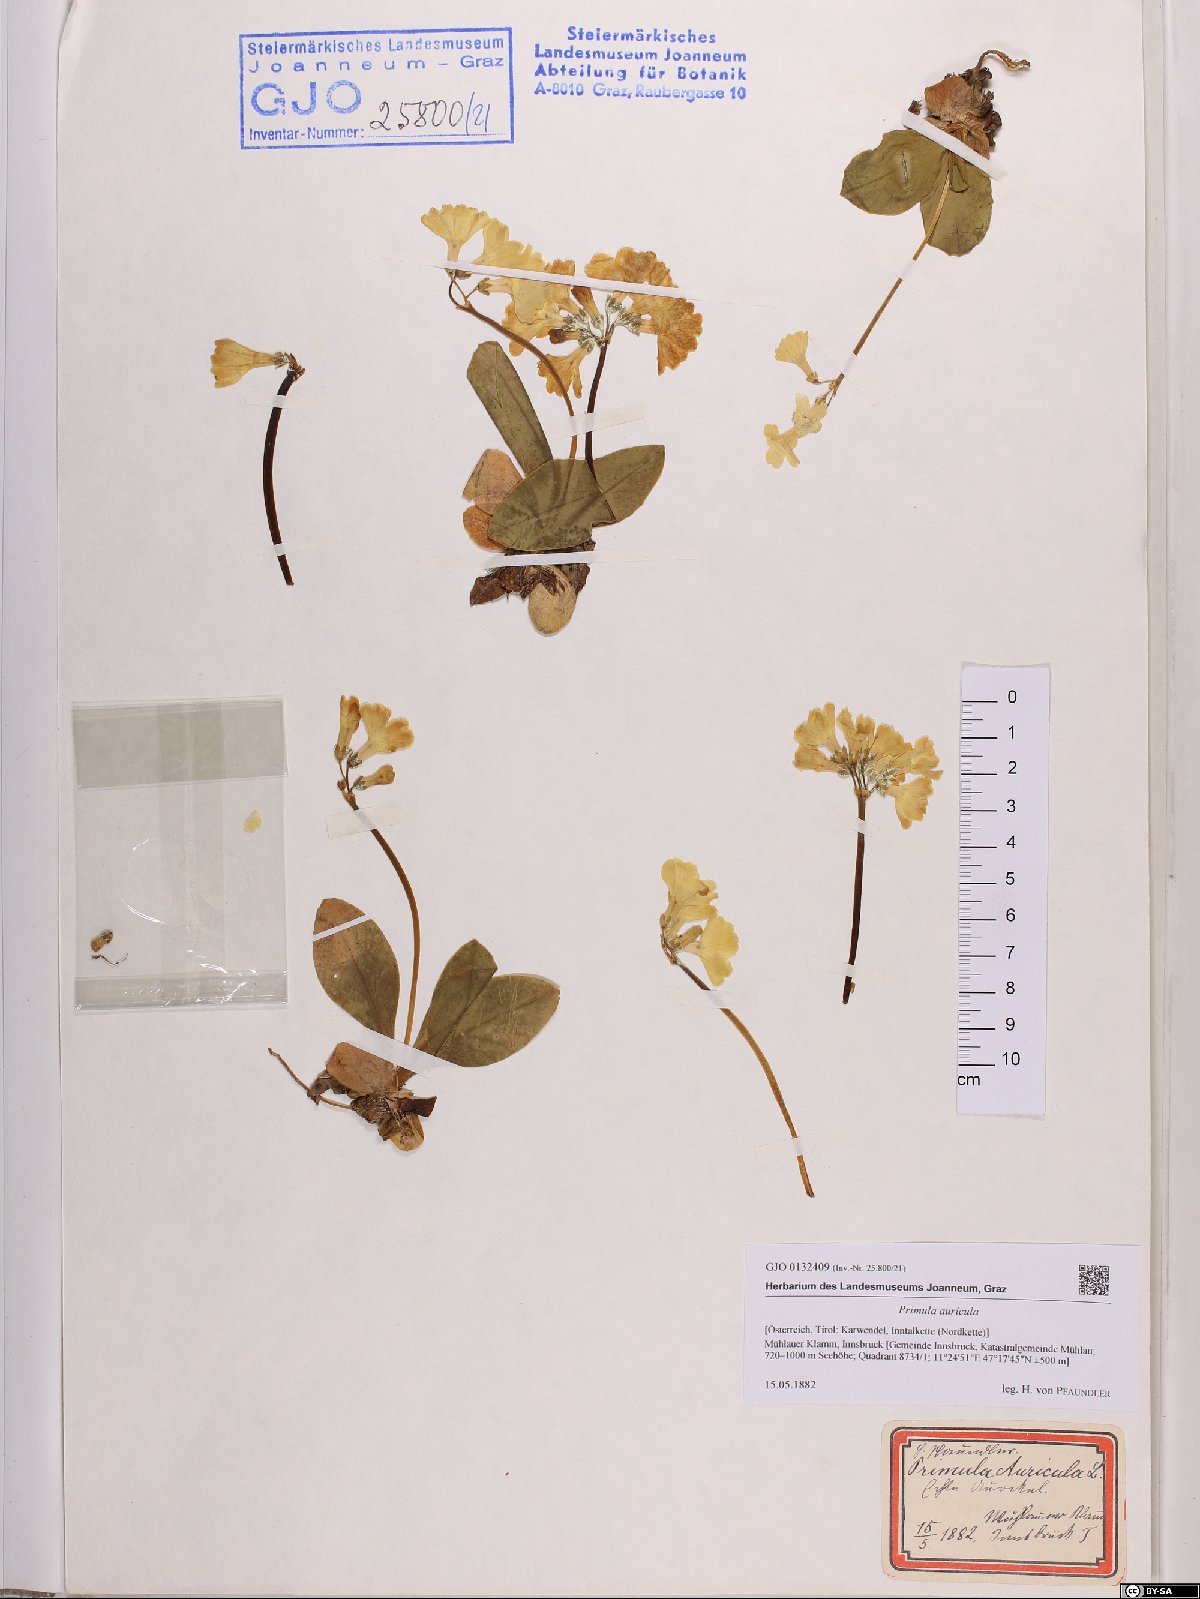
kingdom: Plantae
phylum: Tracheophyta
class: Magnoliopsida
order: Ericales
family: Primulaceae
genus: Primula
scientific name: Primula auricula
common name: Auricula
